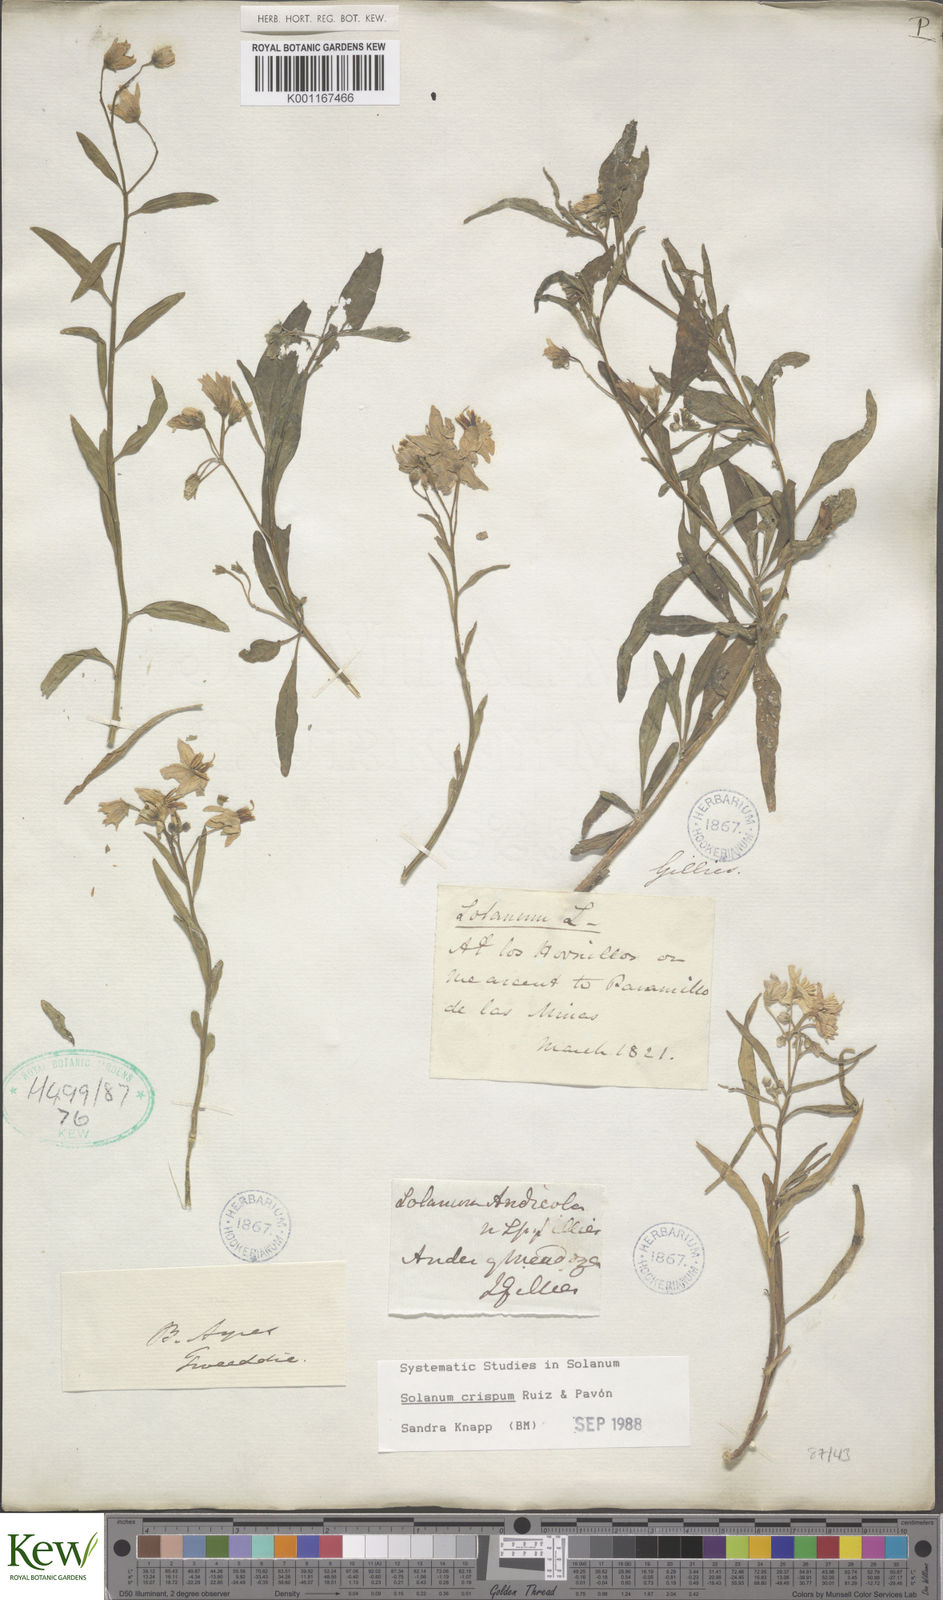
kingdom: Plantae
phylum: Tracheophyta
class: Magnoliopsida
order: Solanales
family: Solanaceae
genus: Solanum
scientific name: Solanum crispum
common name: Chilean nightshade
